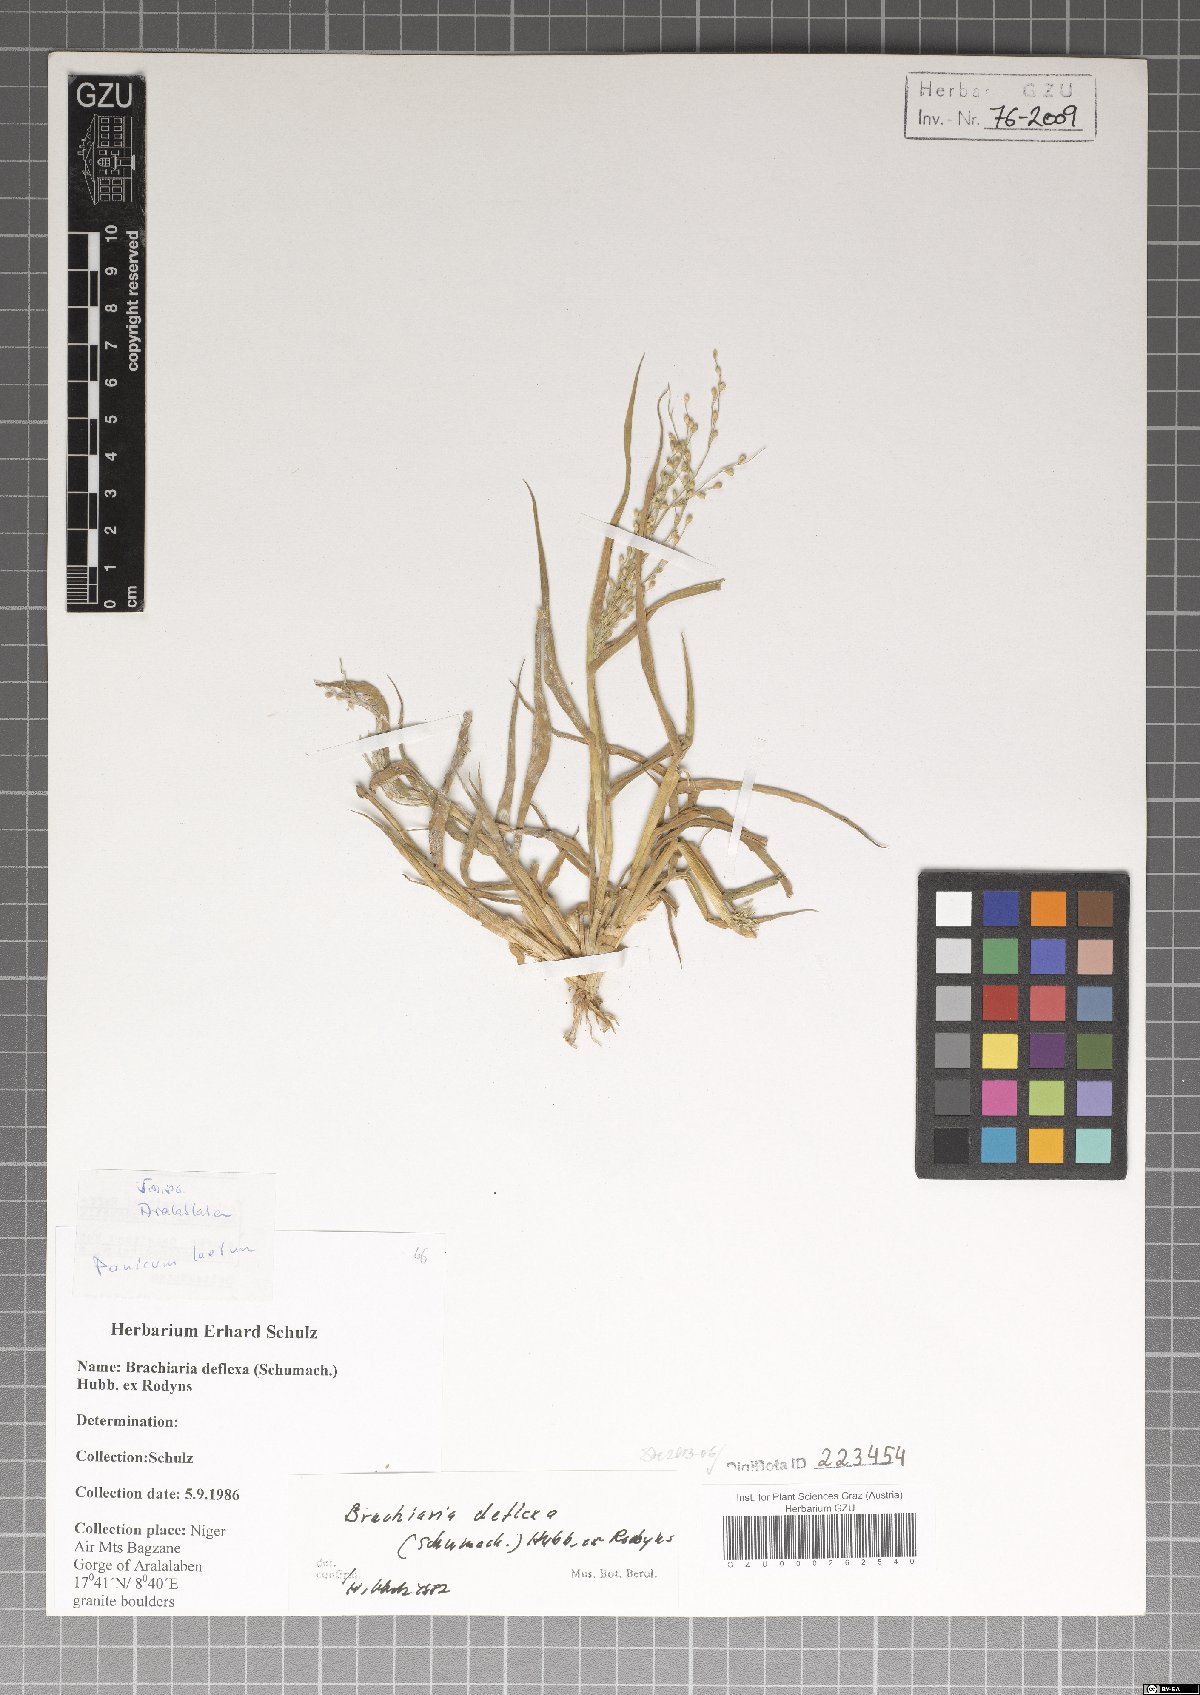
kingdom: Plantae
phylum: Tracheophyta
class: Liliopsida
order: Poales
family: Poaceae
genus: Urochloa
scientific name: Urochloa deflexa
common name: Guinea millet
